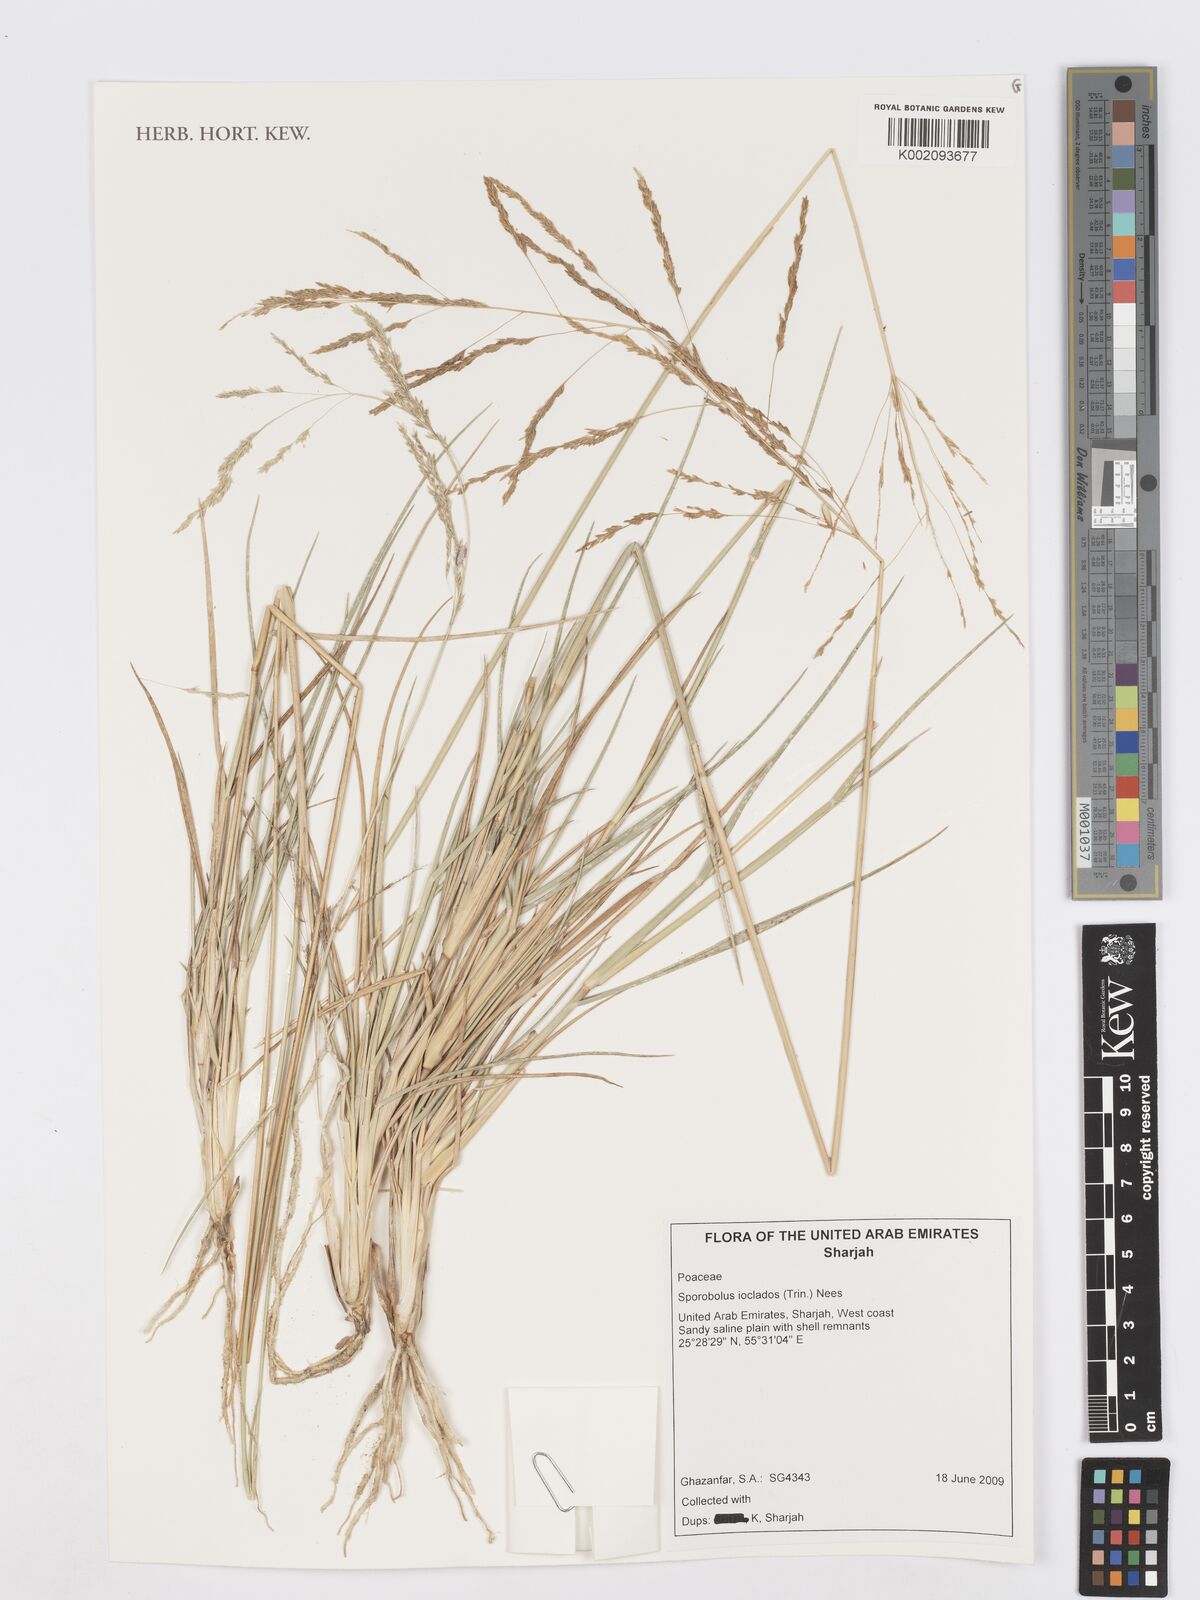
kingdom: Plantae
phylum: Tracheophyta
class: Liliopsida
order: Poales
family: Poaceae
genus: Sporobolus
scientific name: Sporobolus ioclados
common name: Pan dropseed
